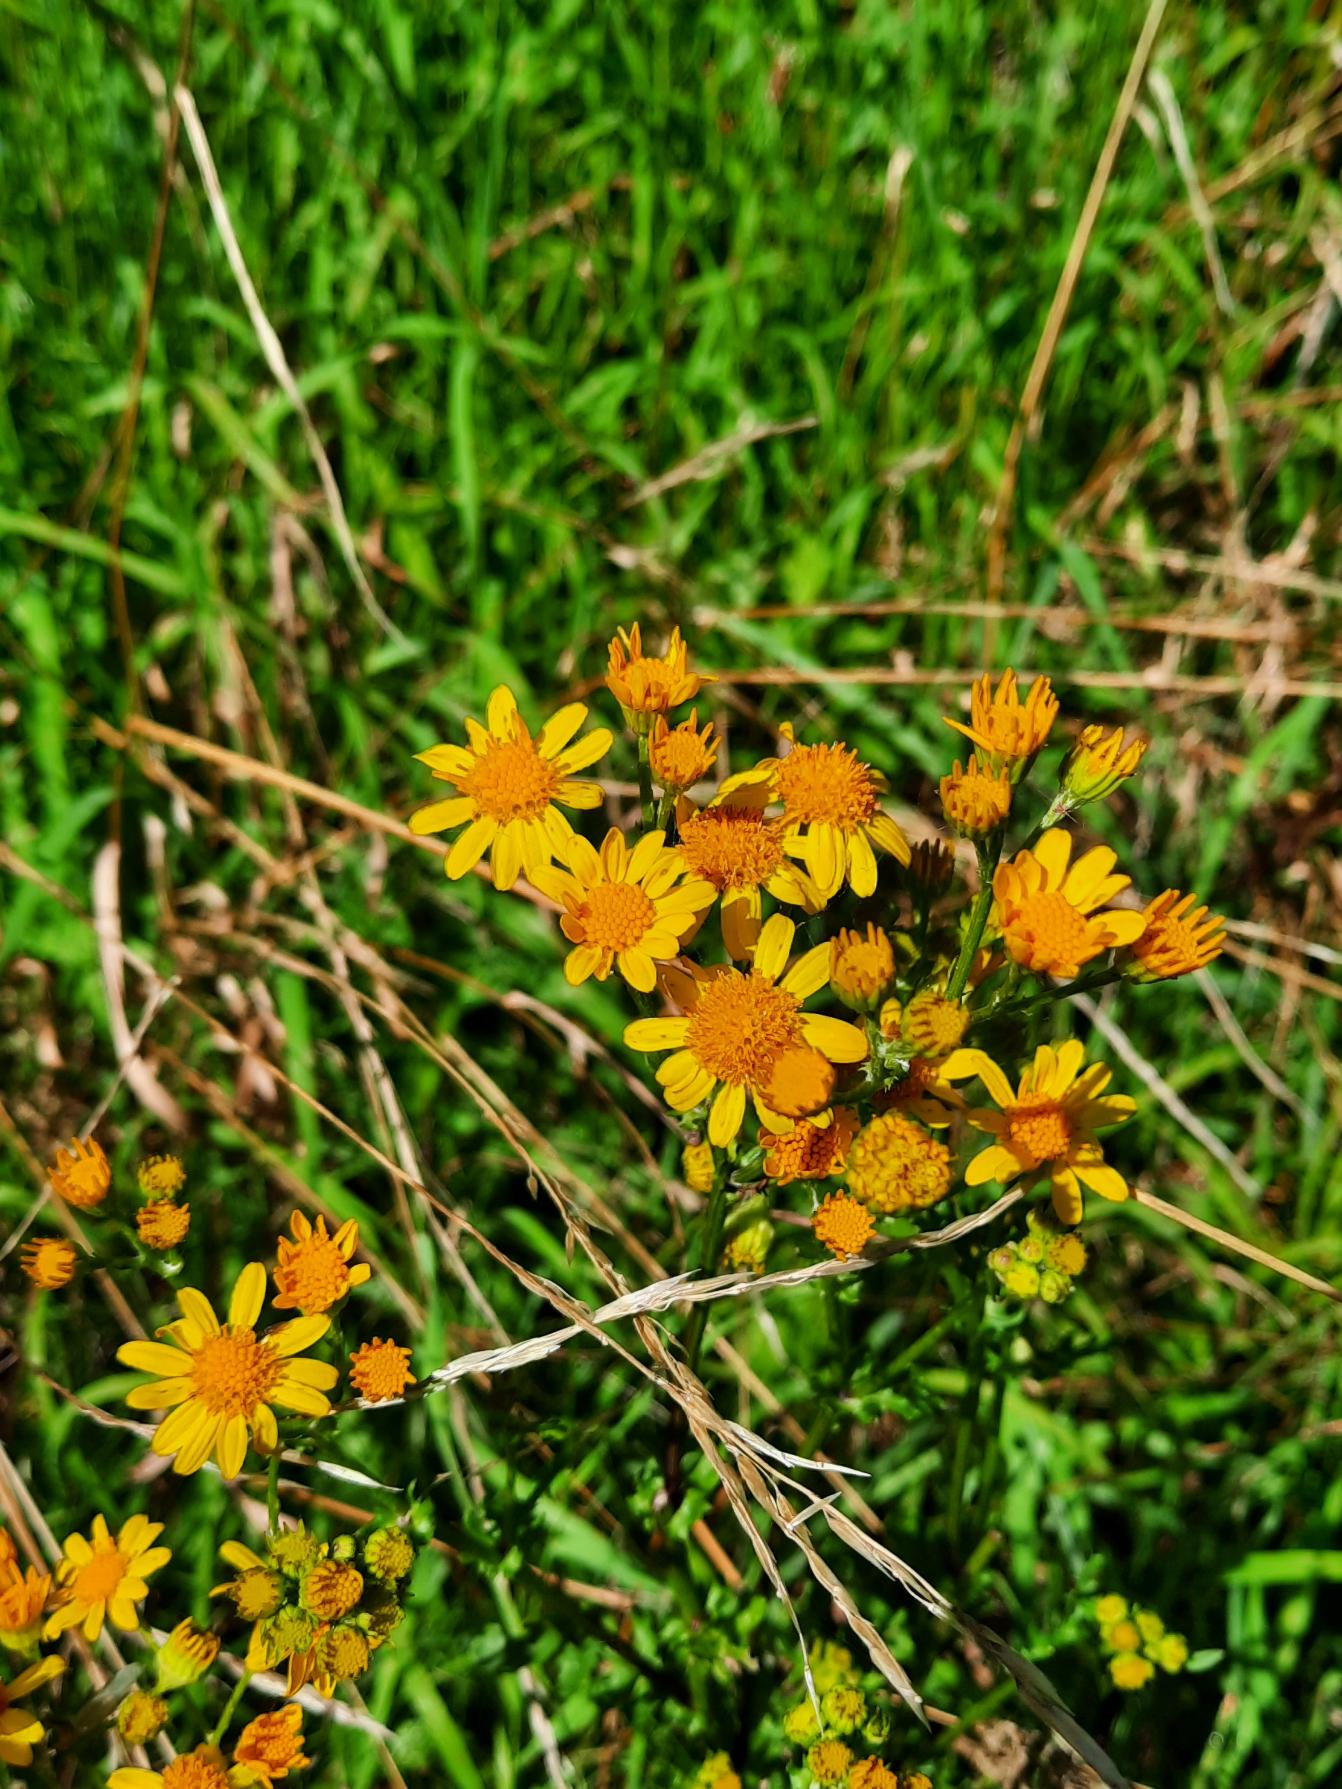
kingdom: Plantae
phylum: Tracheophyta
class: Magnoliopsida
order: Asterales
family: Asteraceae
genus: Jacobaea
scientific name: Jacobaea vulgaris
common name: Eng-brandbæger
